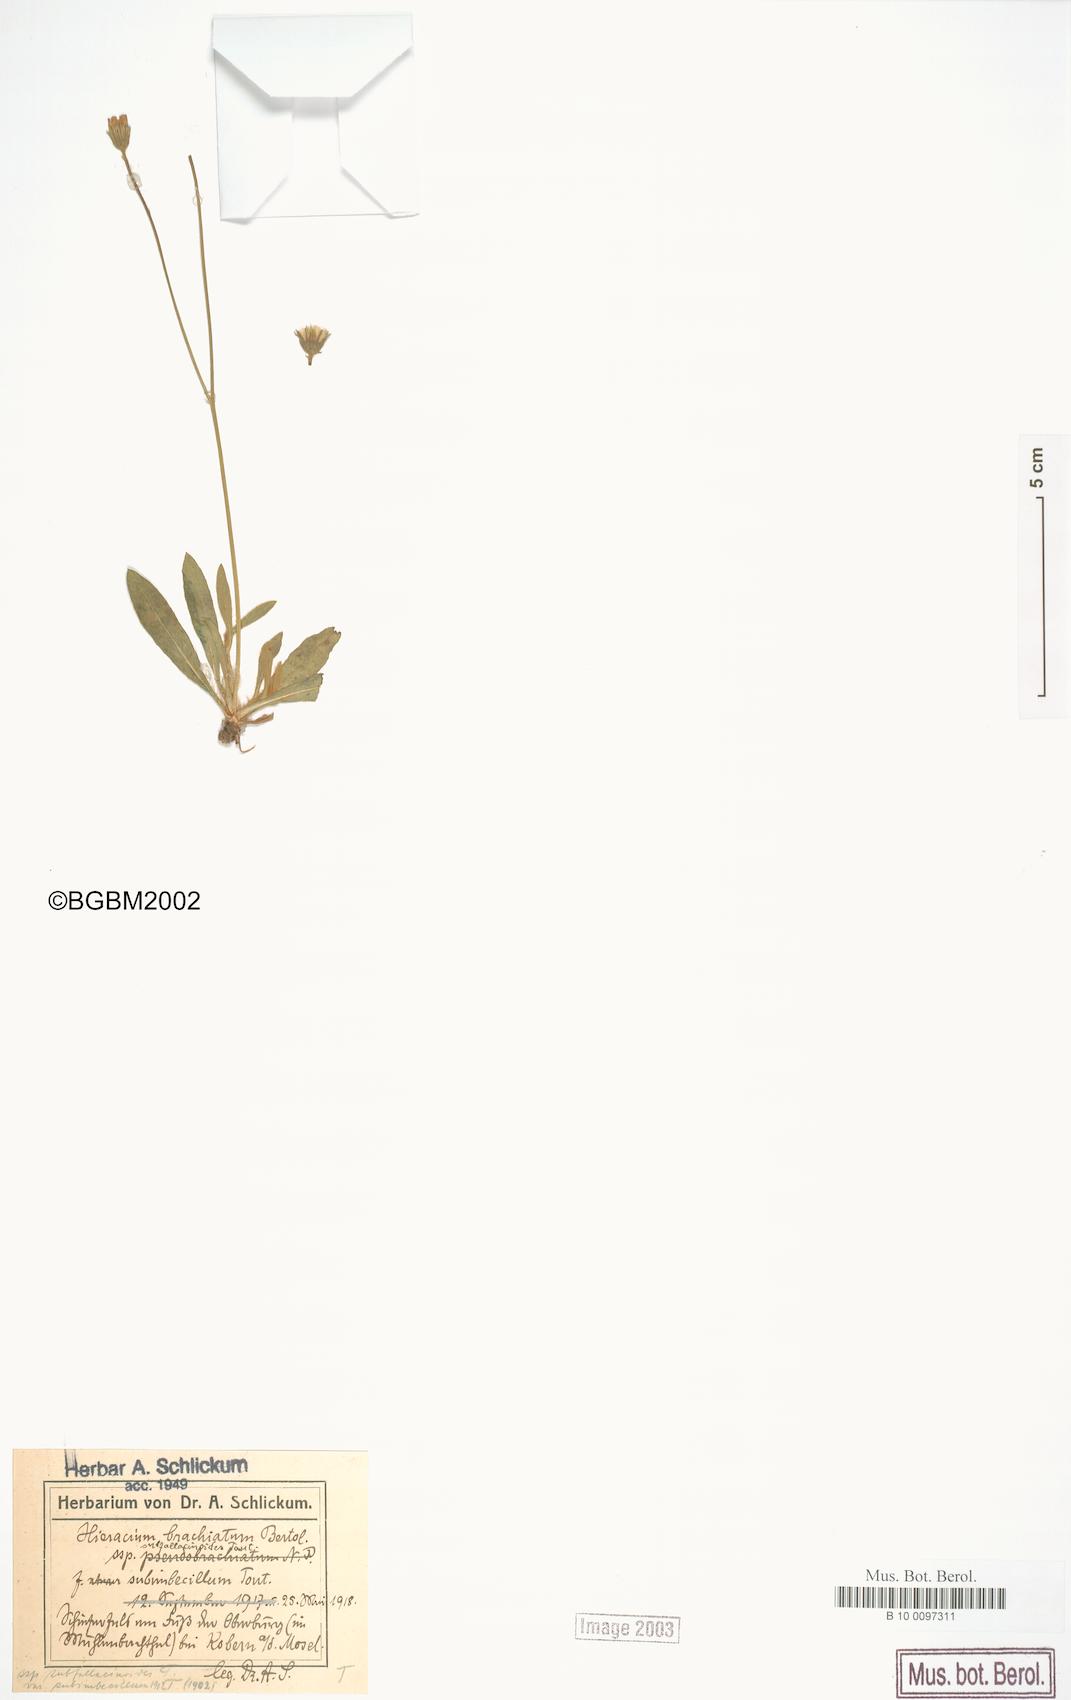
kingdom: Plantae
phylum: Tracheophyta
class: Magnoliopsida
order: Asterales
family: Asteraceae
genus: Pilosella
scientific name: Pilosella acutifolia
